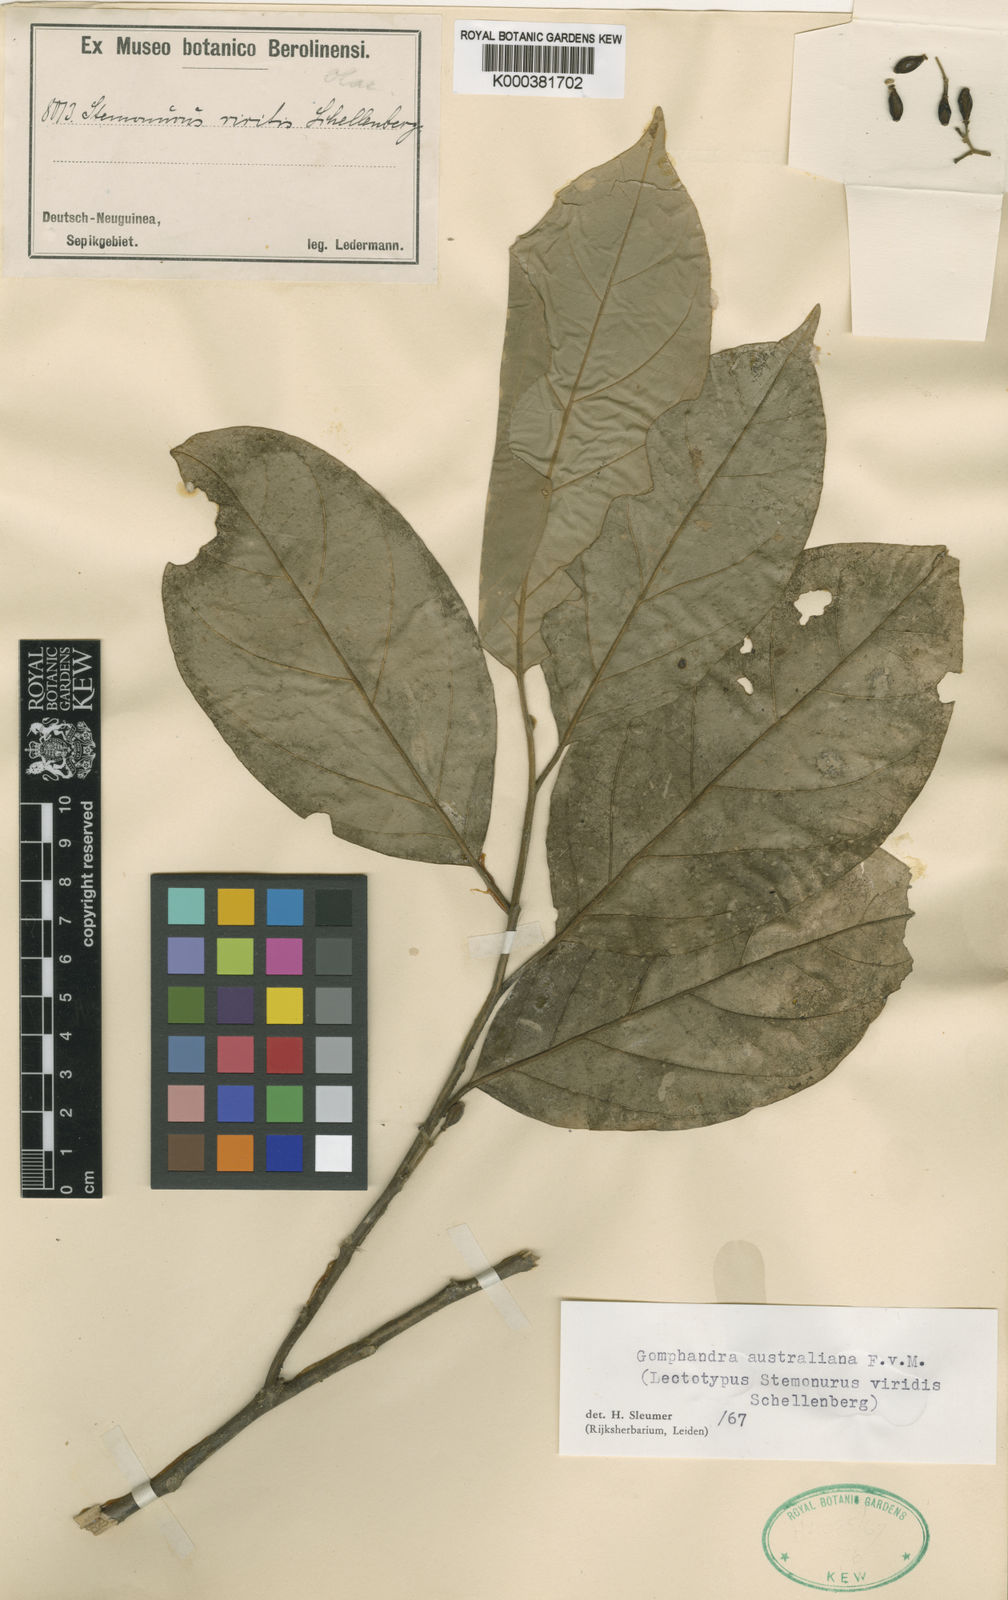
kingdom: Plantae
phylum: Tracheophyta
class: Magnoliopsida
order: Cardiopteridales
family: Stemonuraceae
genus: Gomphandra
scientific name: Gomphandra australiana
